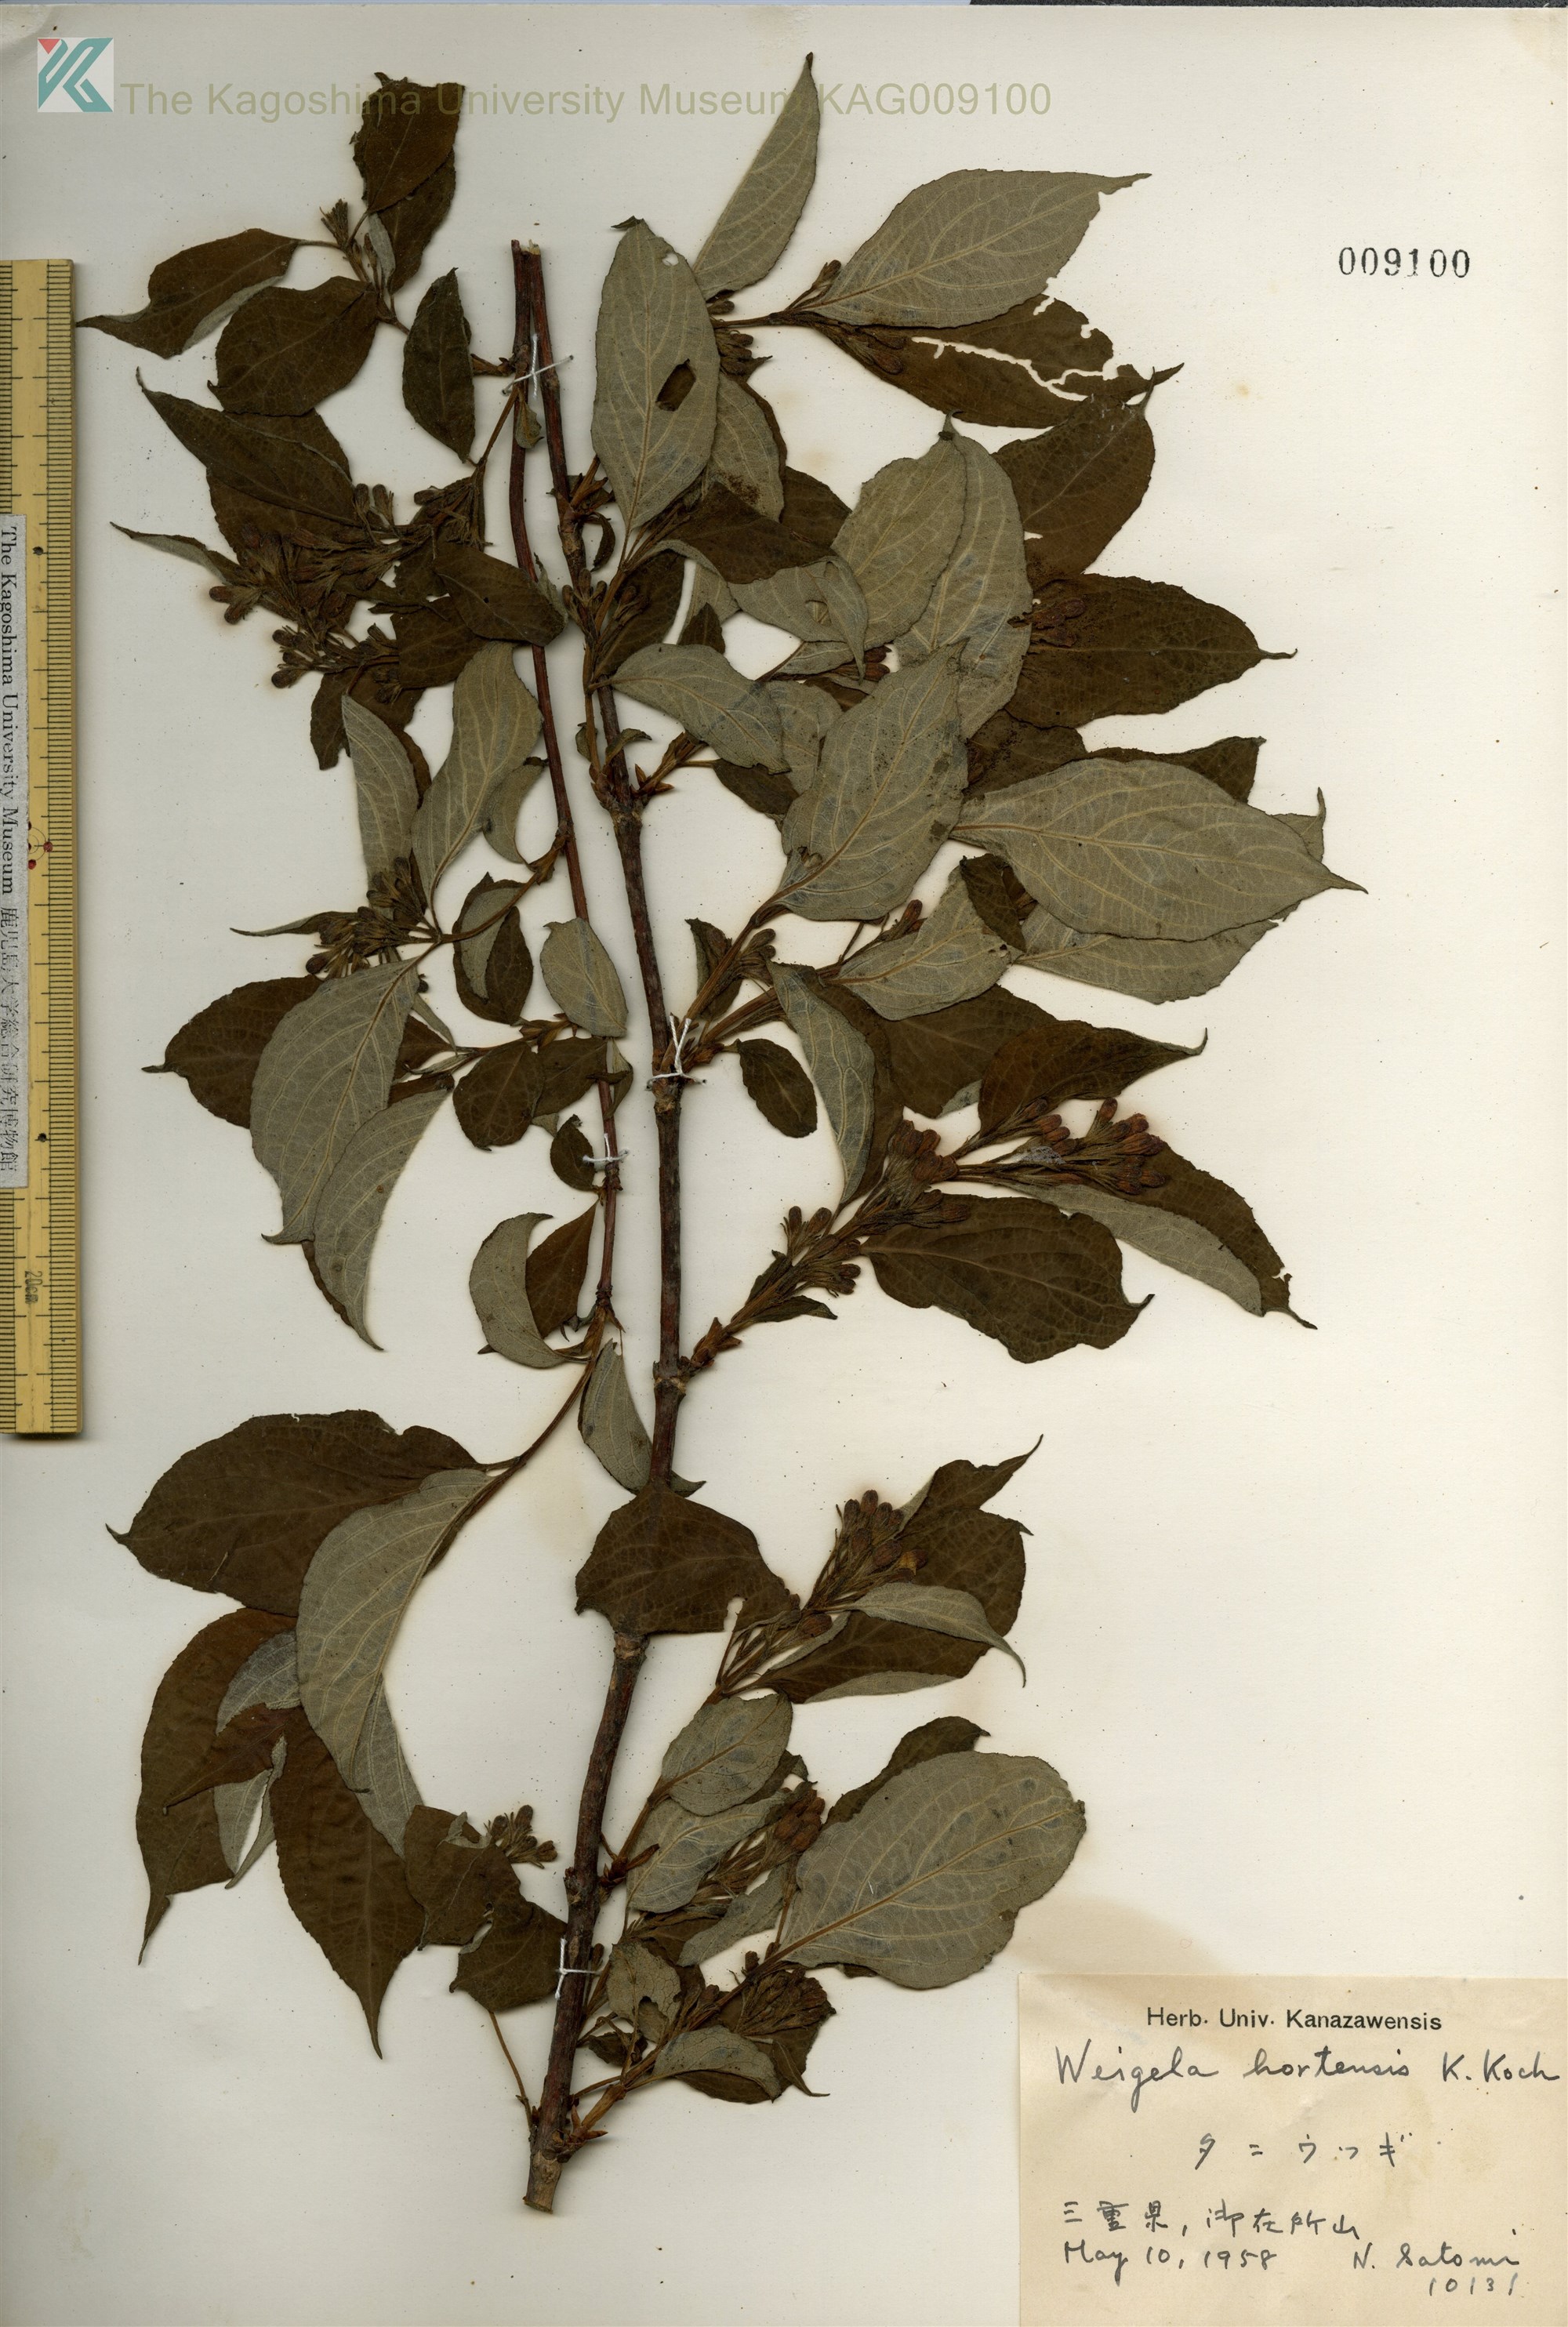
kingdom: Plantae
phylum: Tracheophyta
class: Magnoliopsida
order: Dipsacales
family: Caprifoliaceae
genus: Weigela
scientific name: Weigela hortensis
